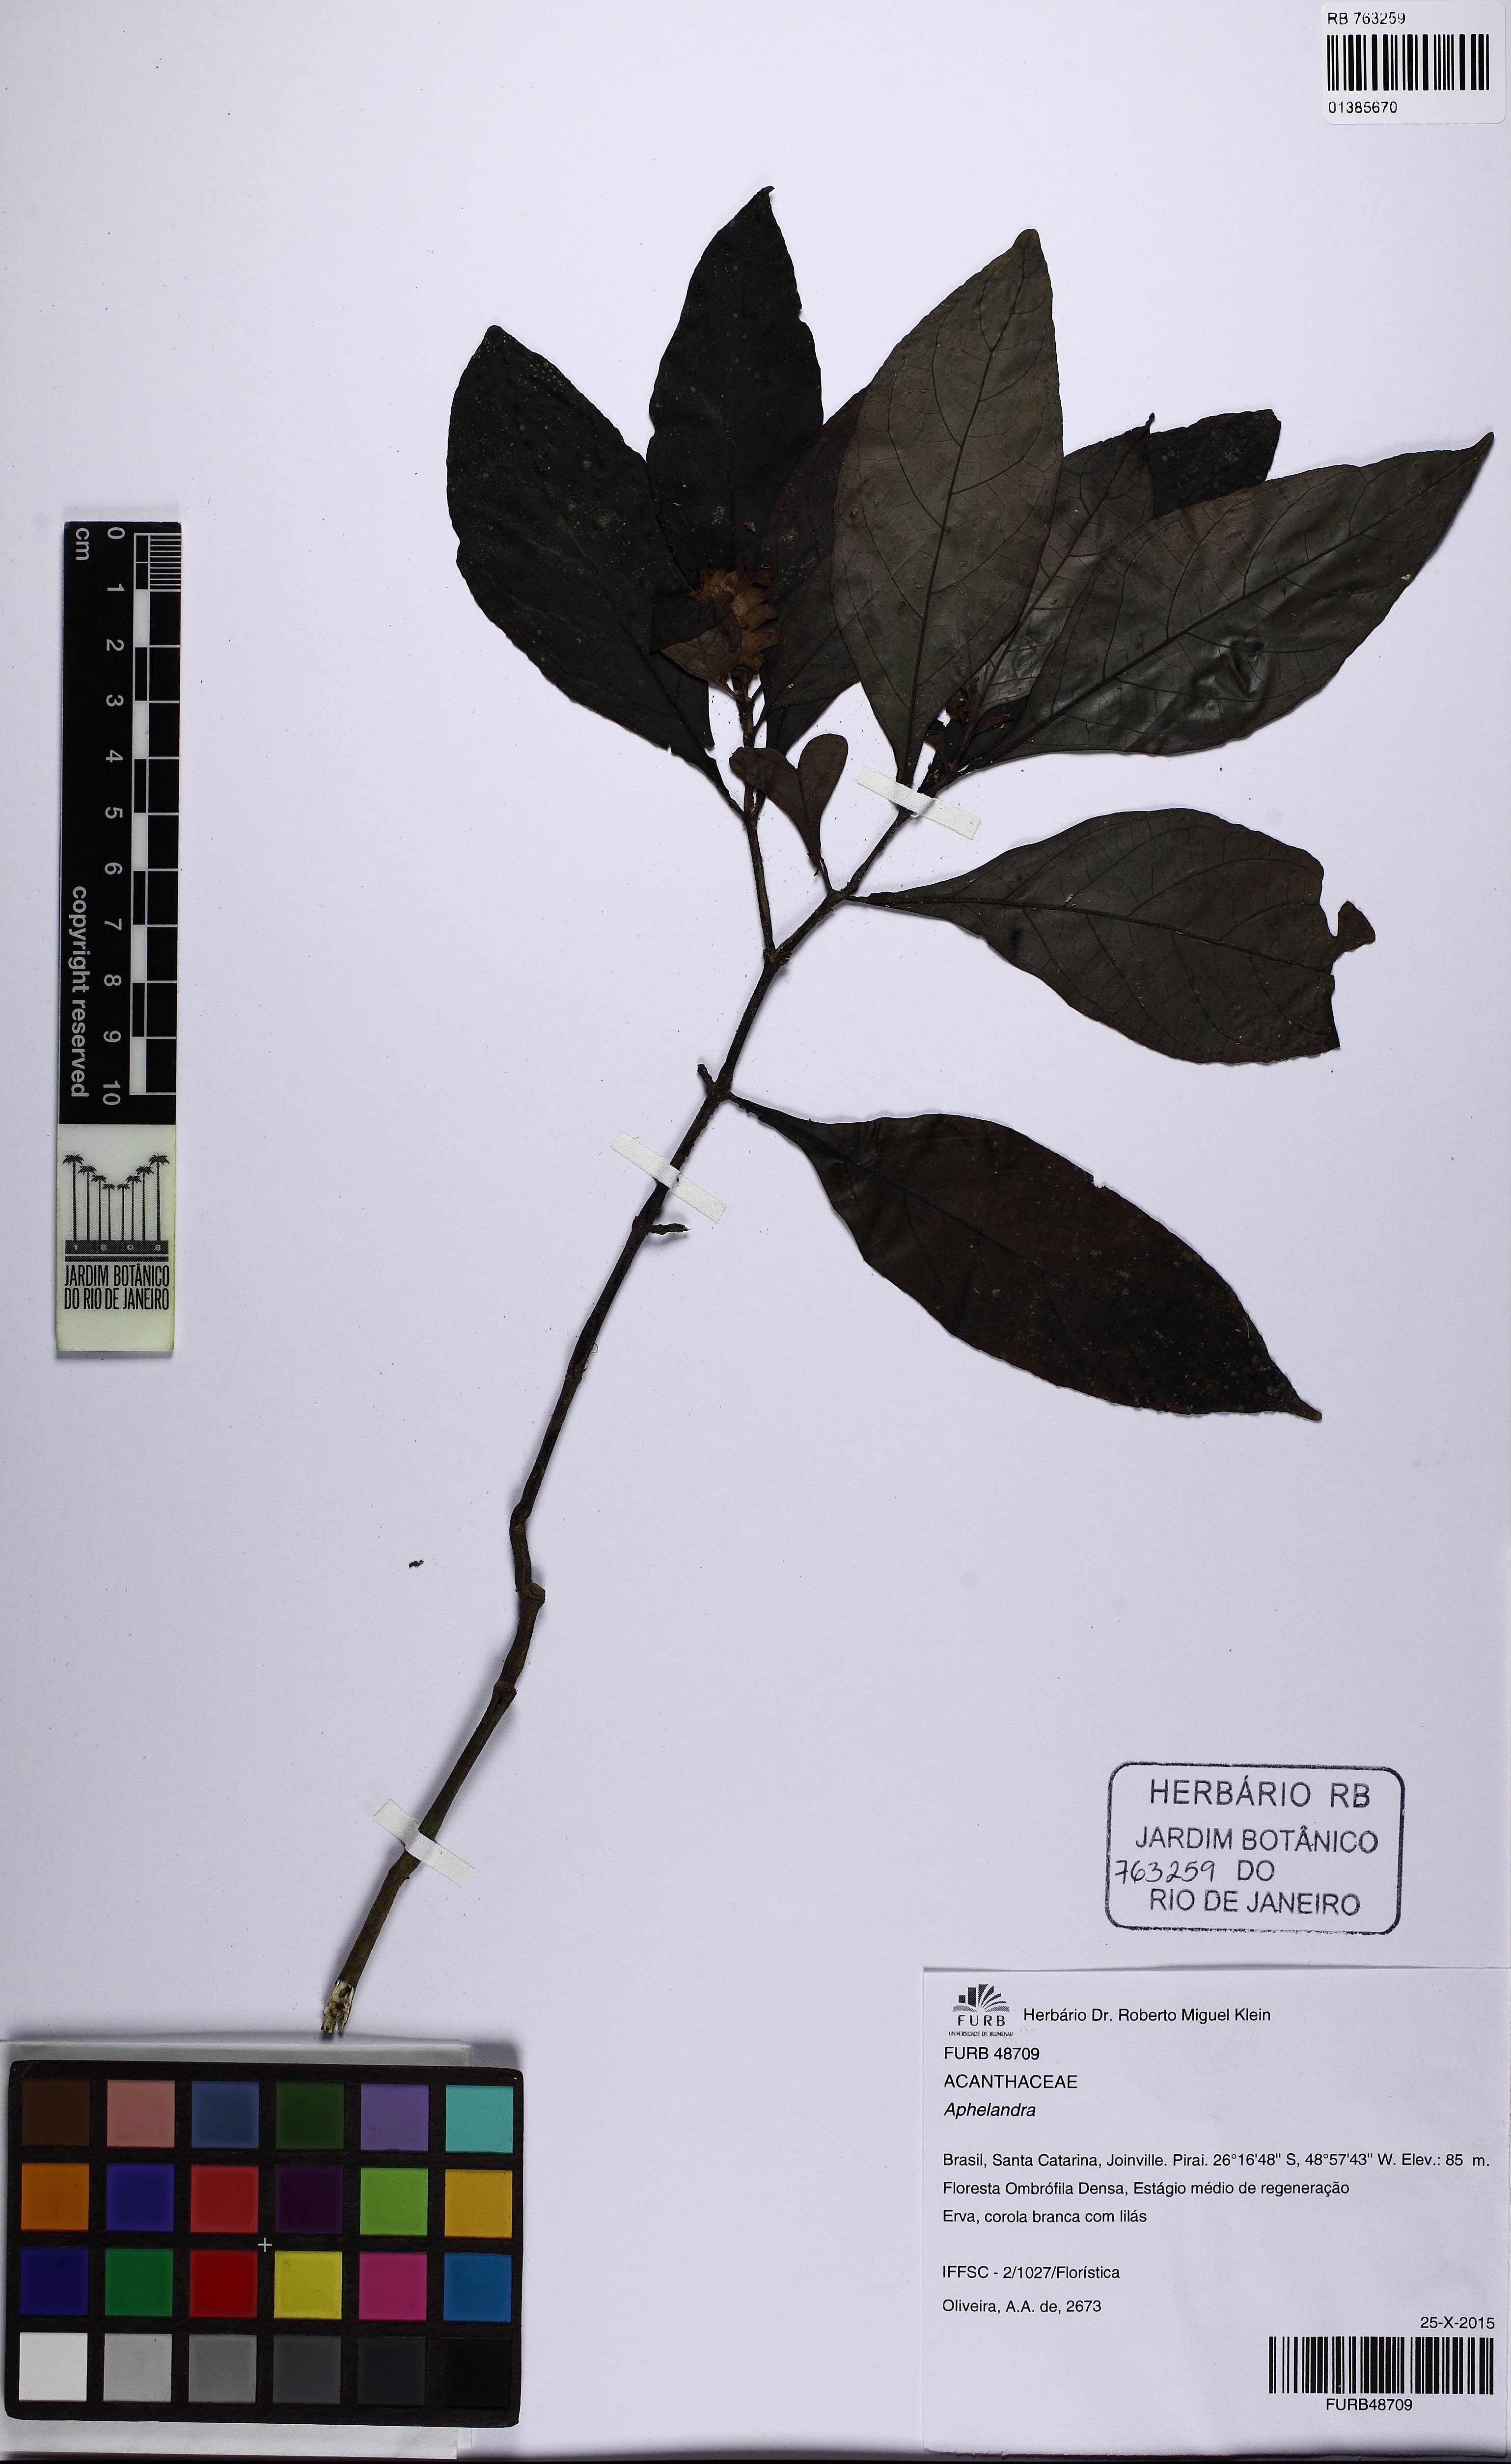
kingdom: Plantae
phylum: Tracheophyta
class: Magnoliopsida
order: Lamiales
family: Acanthaceae
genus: Justicia
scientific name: Justicia
